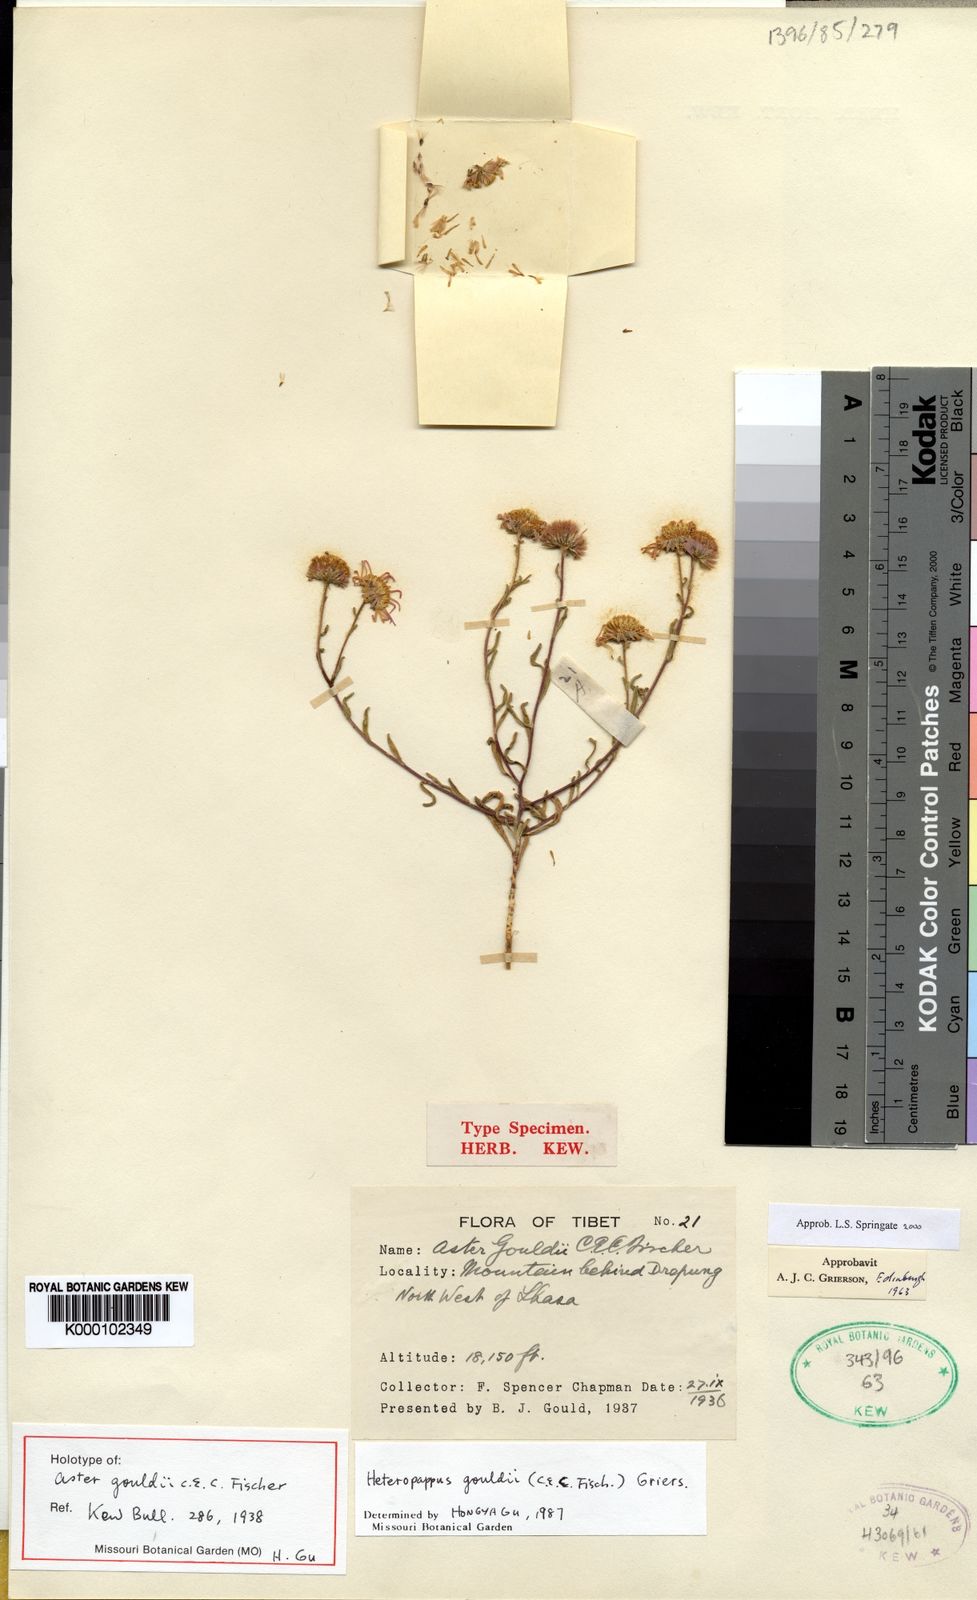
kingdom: Plantae
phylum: Tracheophyta
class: Magnoliopsida
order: Asterales
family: Asteraceae
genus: Heteropappus
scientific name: Heteropappus gouldii
